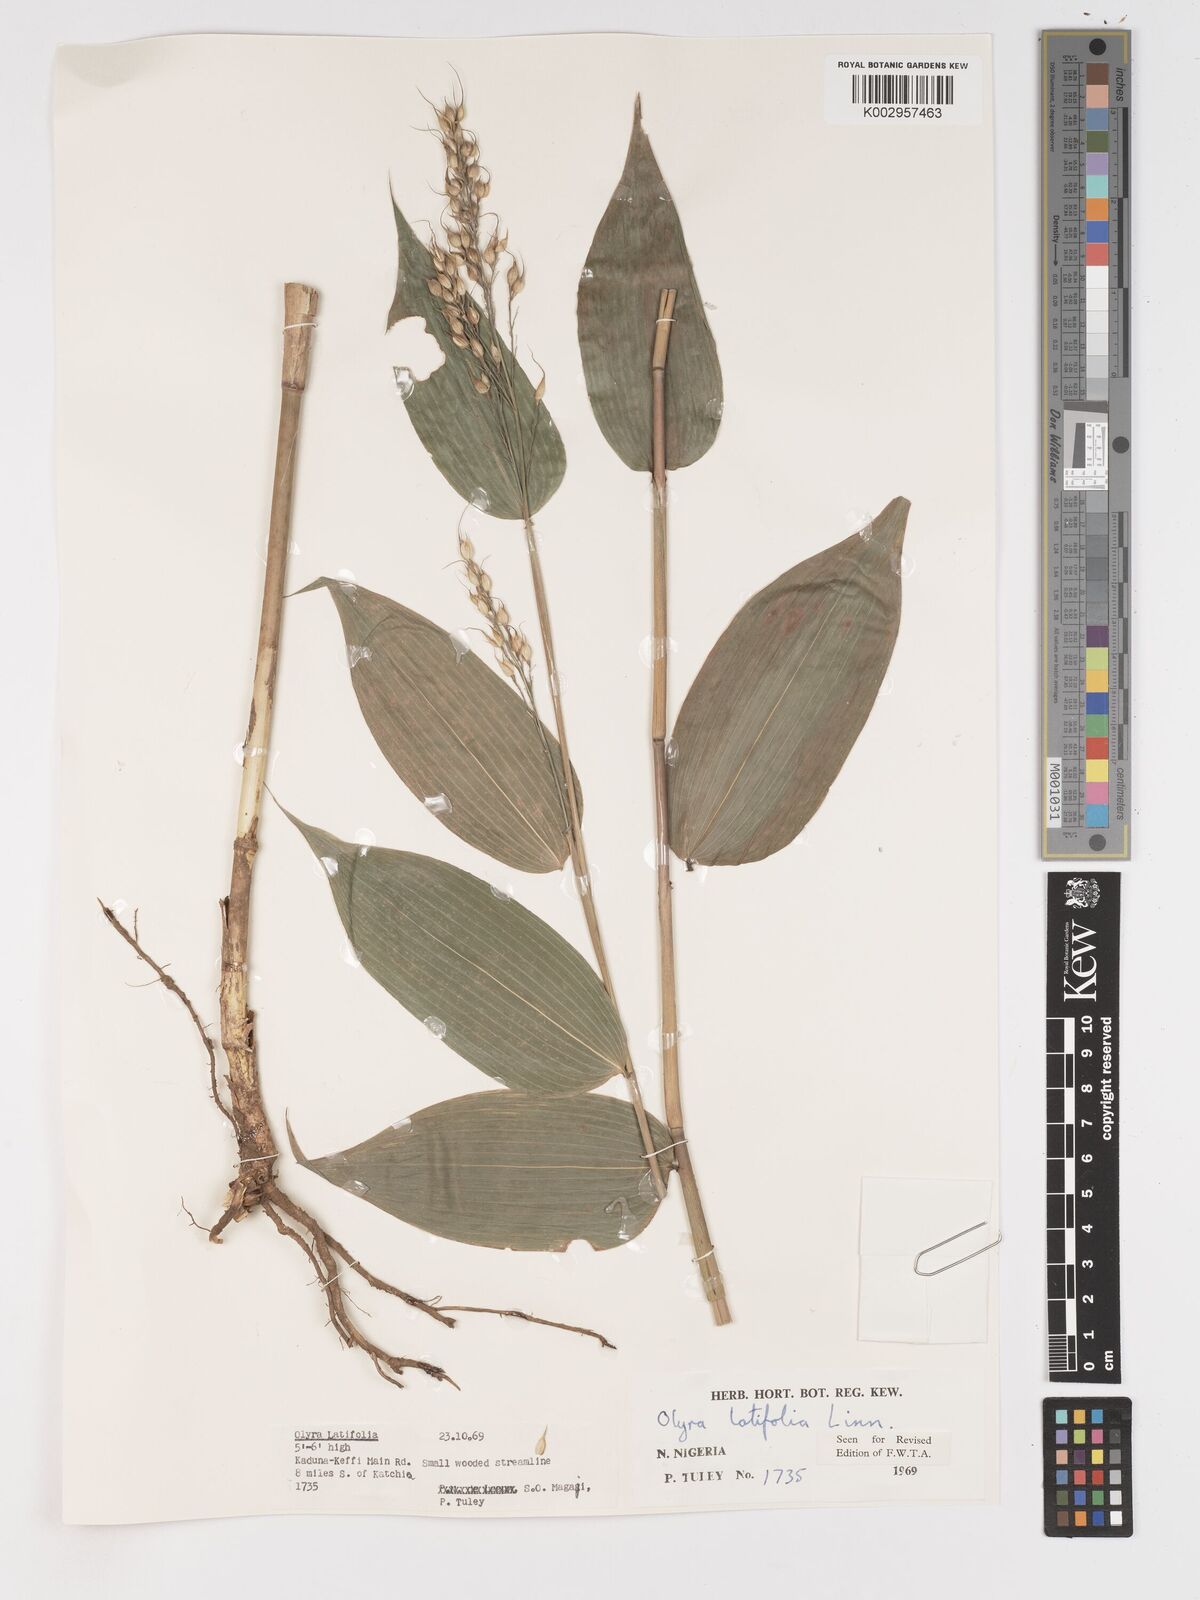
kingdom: Plantae
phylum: Tracheophyta
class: Liliopsida
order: Poales
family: Poaceae
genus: Olyra
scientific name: Olyra latifolia
